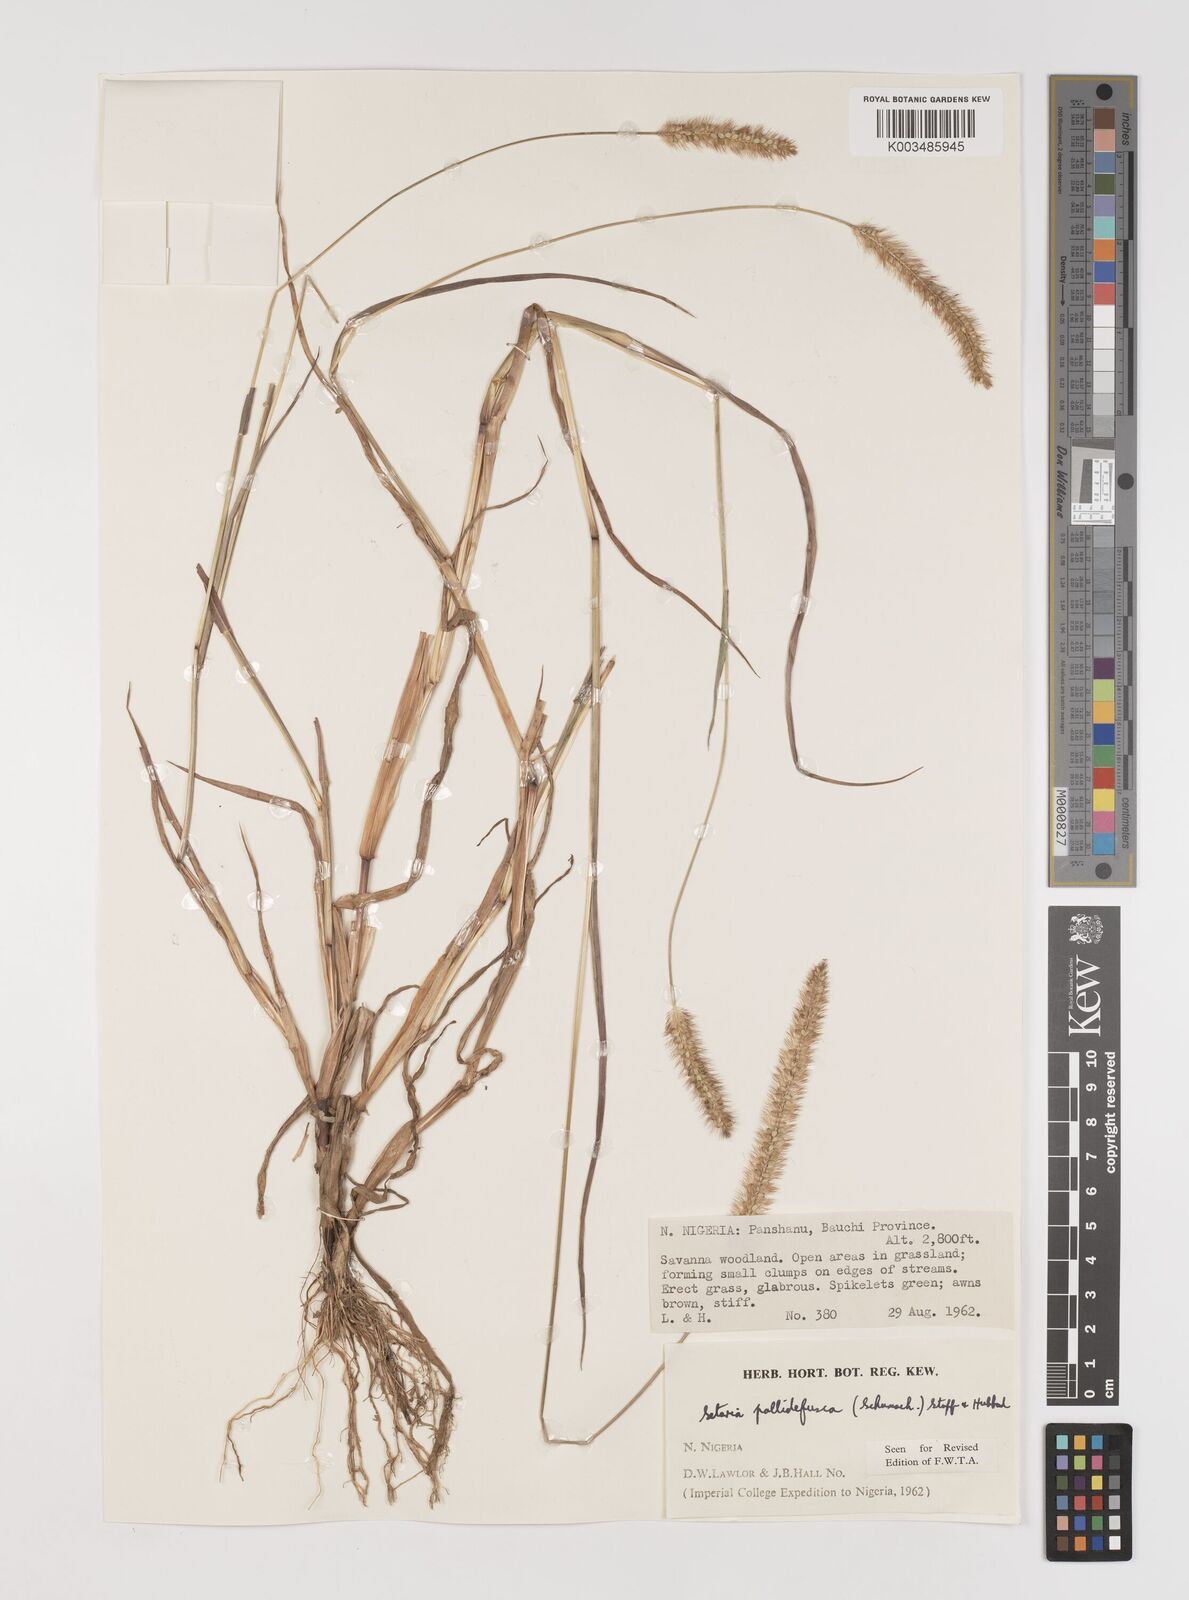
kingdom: Plantae
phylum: Tracheophyta
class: Liliopsida
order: Poales
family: Poaceae
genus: Setaria
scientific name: Setaria pumila
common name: Yellow bristle-grass
